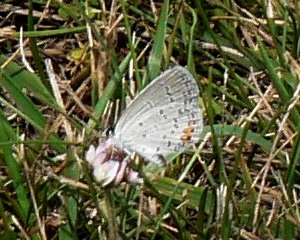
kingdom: Animalia
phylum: Arthropoda
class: Insecta
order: Lepidoptera
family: Lycaenidae
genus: Elkalyce
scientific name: Elkalyce comyntas
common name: Eastern Tailed-Blue
